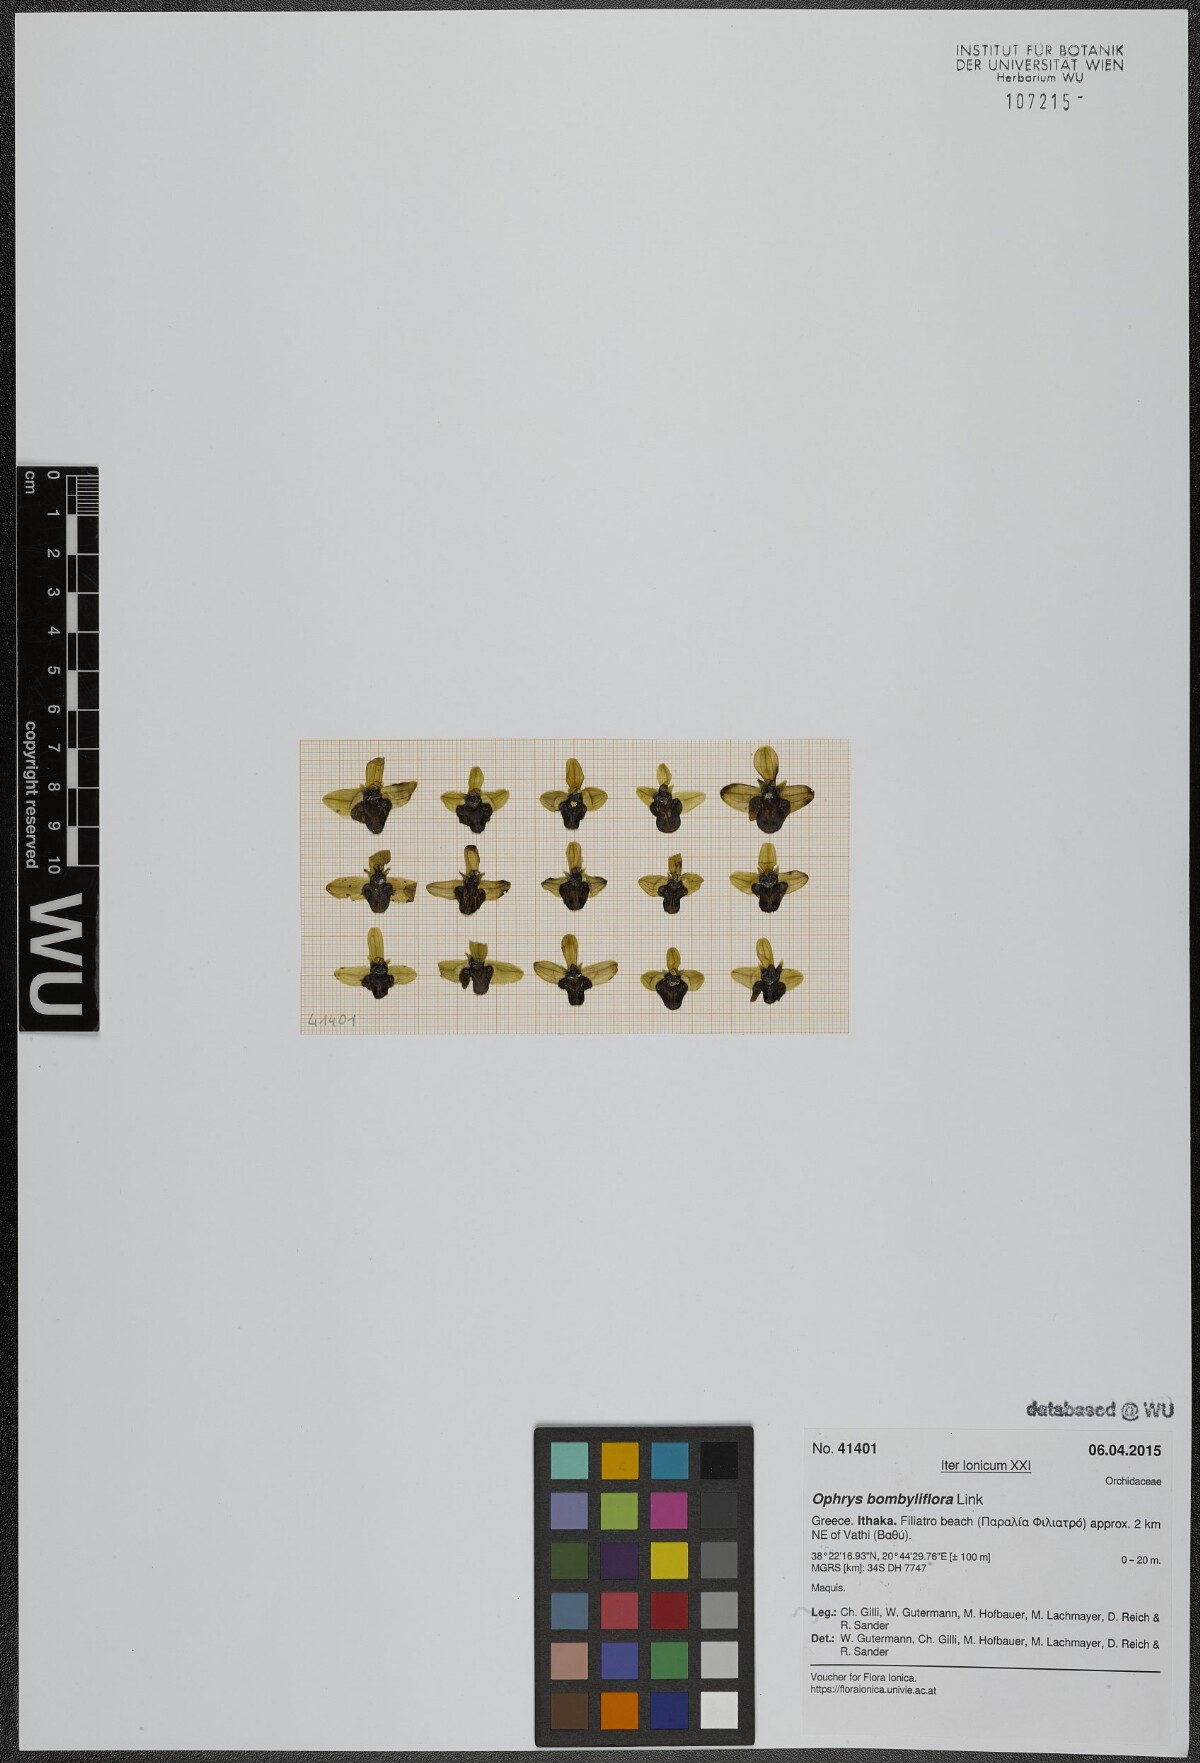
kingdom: Plantae
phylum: Tracheophyta
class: Liliopsida
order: Asparagales
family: Orchidaceae
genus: Ophrys
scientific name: Ophrys bombyliflora
